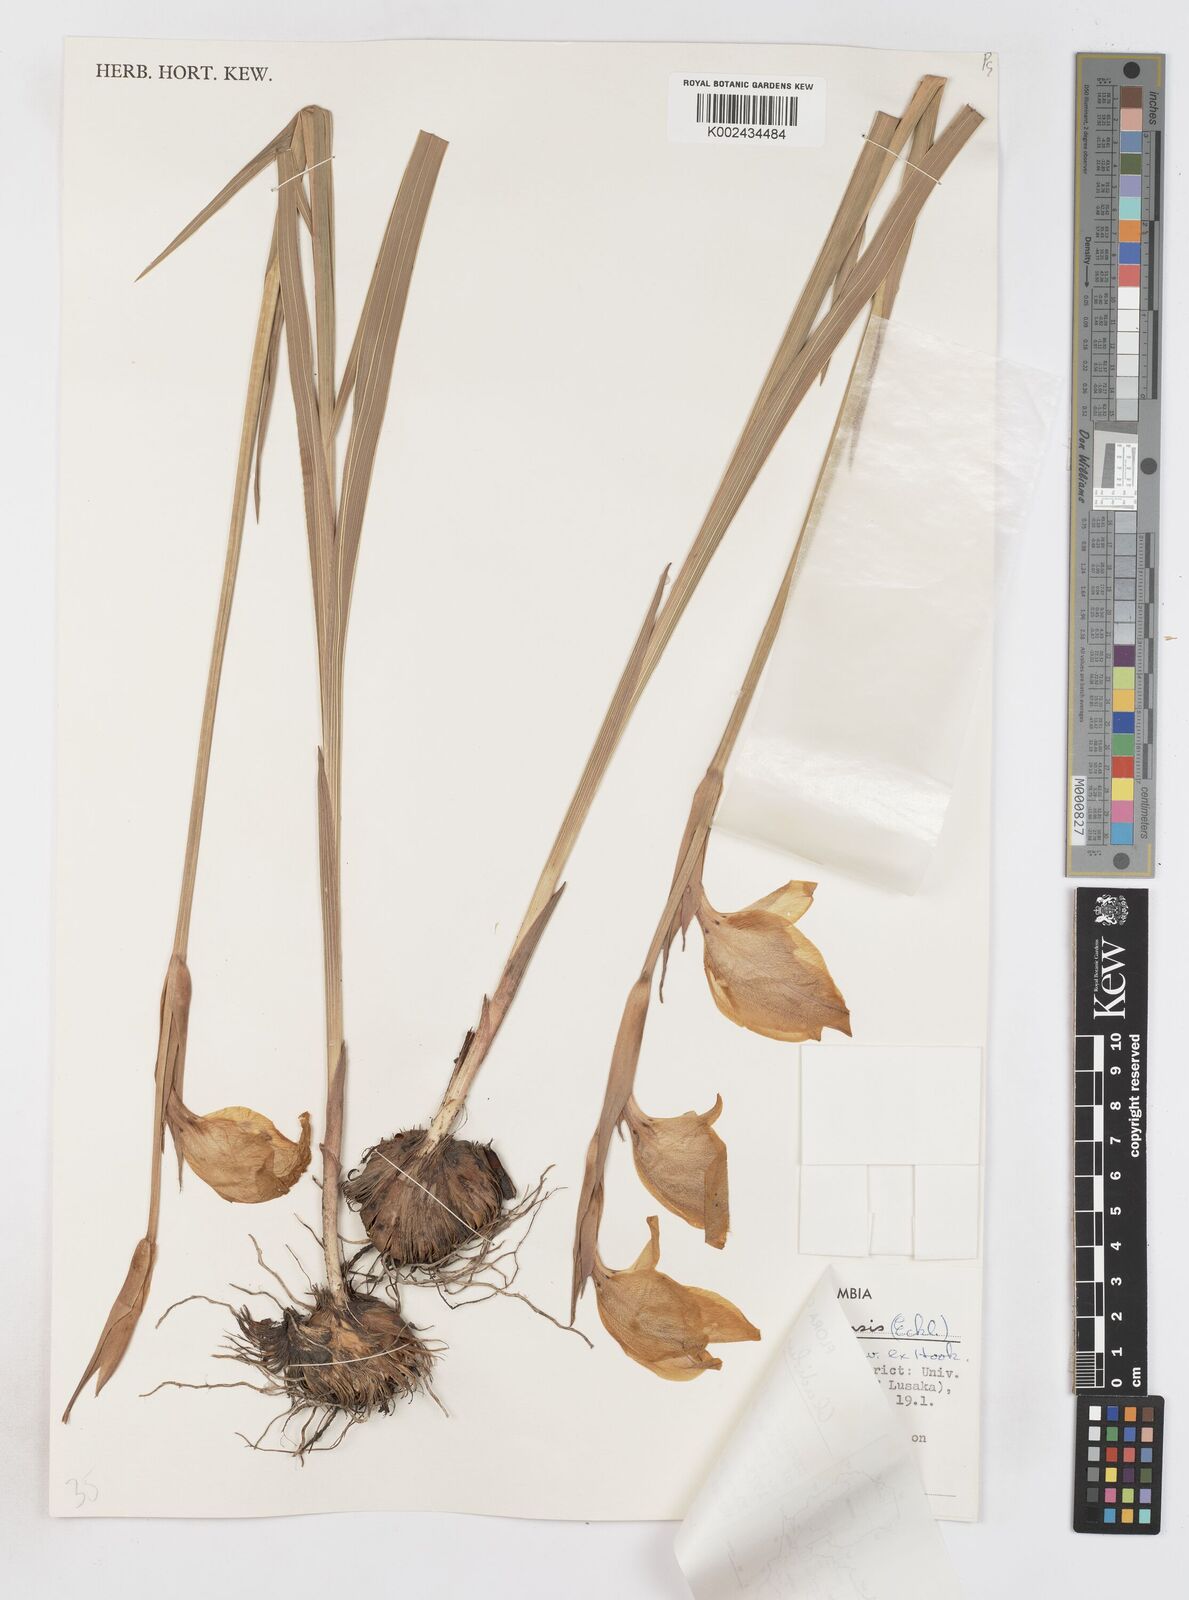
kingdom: Plantae
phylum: Tracheophyta
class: Liliopsida
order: Asparagales
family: Iridaceae
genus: Gladiolus
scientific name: Gladiolus dalenii
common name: Cornflag
